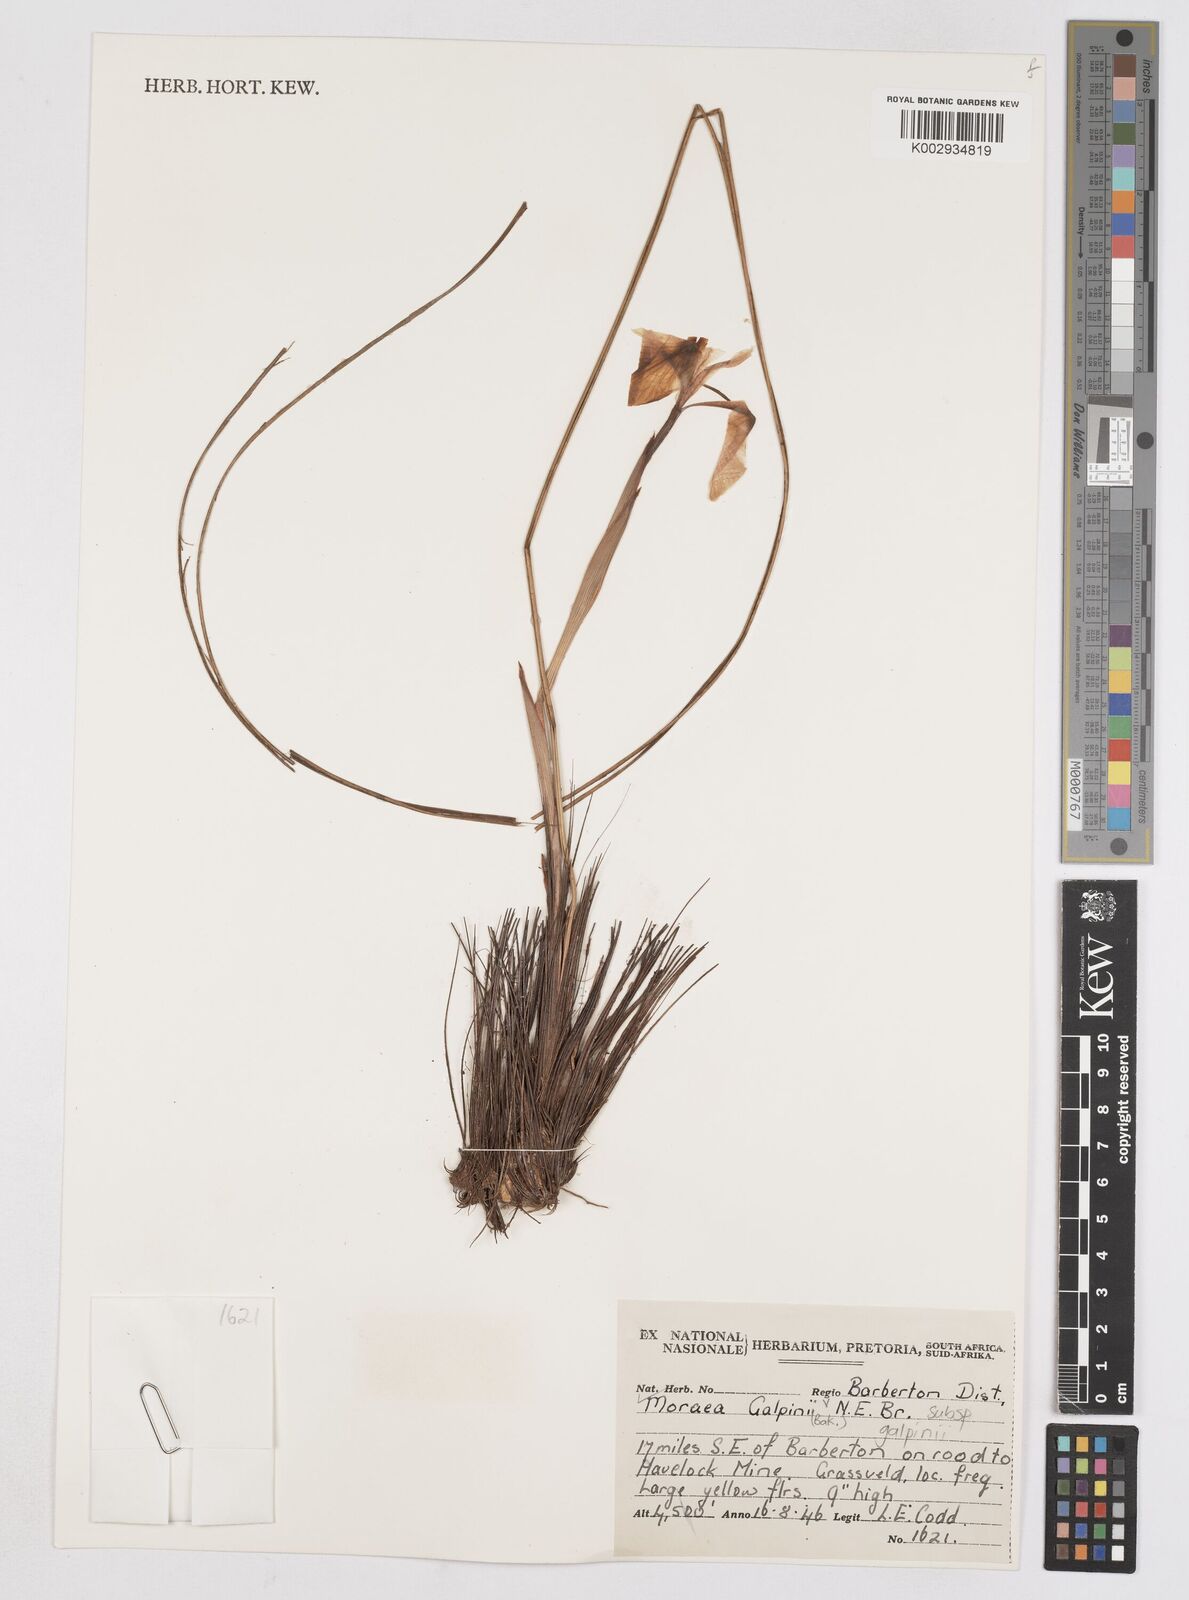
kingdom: Plantae
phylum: Tracheophyta
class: Liliopsida
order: Asparagales
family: Iridaceae
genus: Moraea
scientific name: Moraea galpinii
